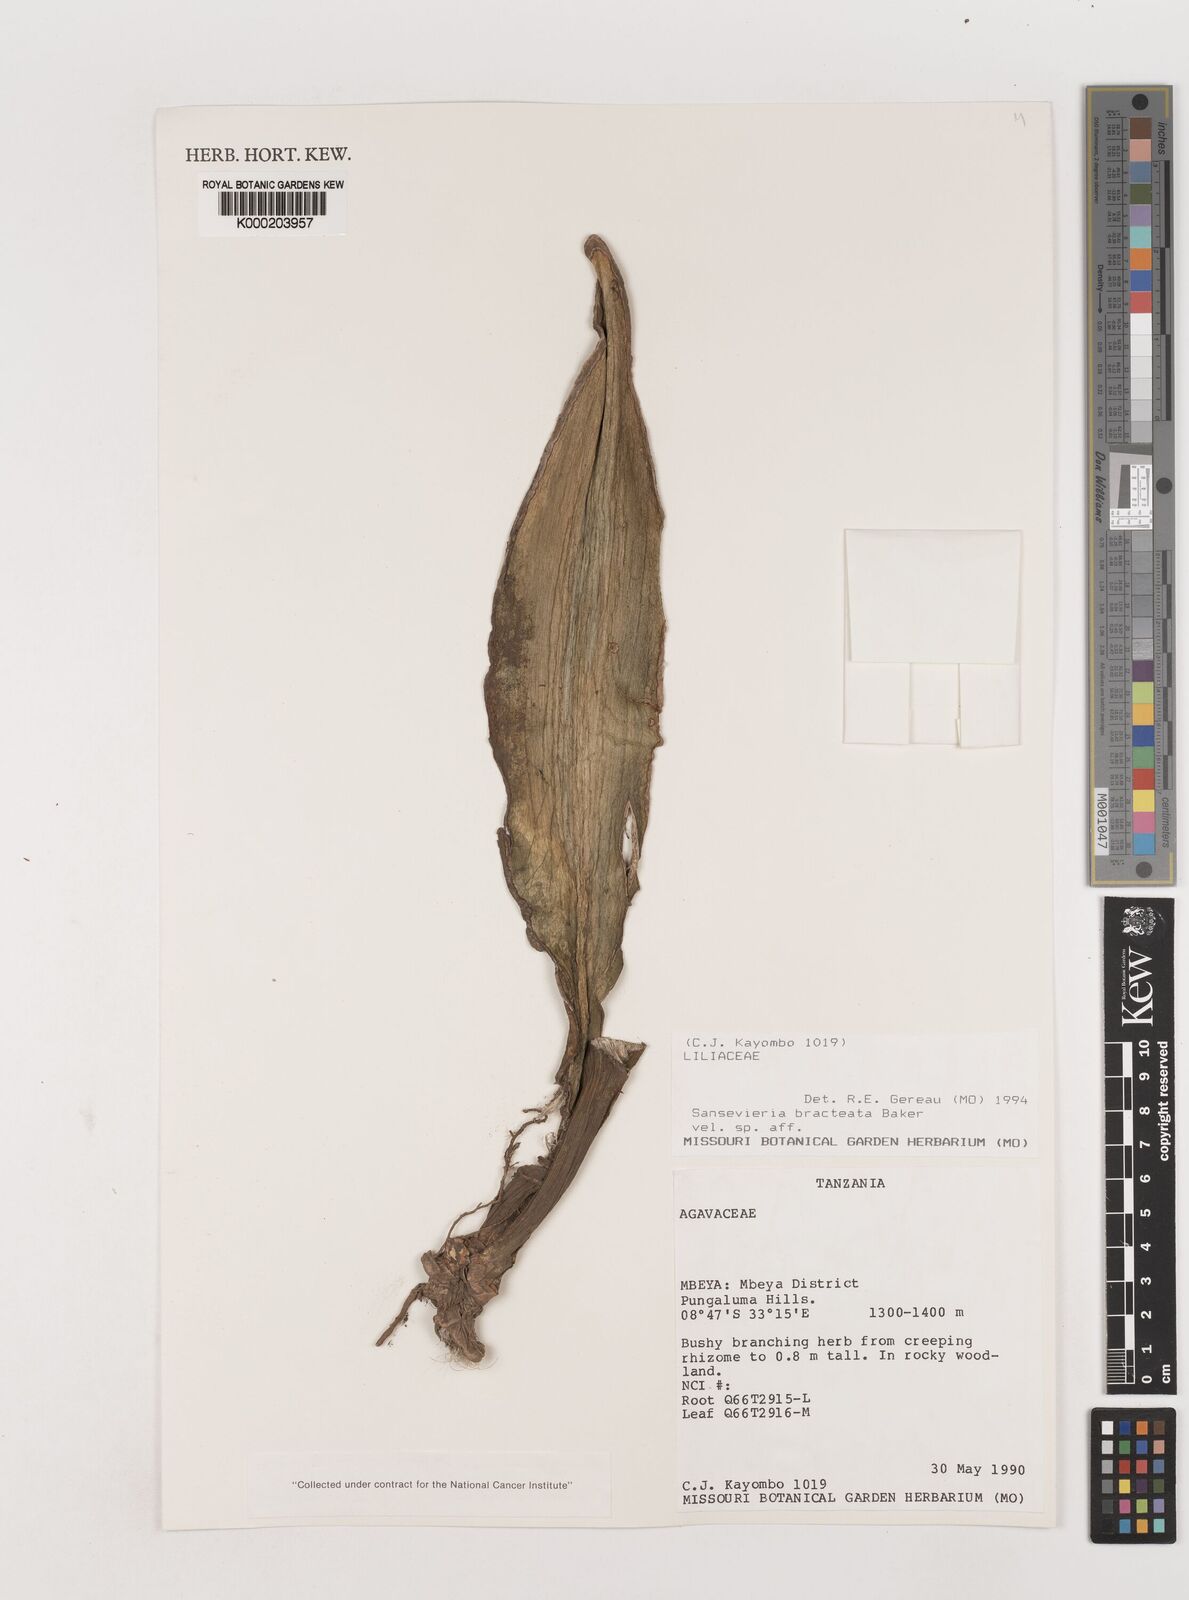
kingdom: Plantae
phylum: Tracheophyta
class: Liliopsida
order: Asparagales
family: Asparagaceae
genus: Dracaena
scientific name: Dracaena aubrytiana
